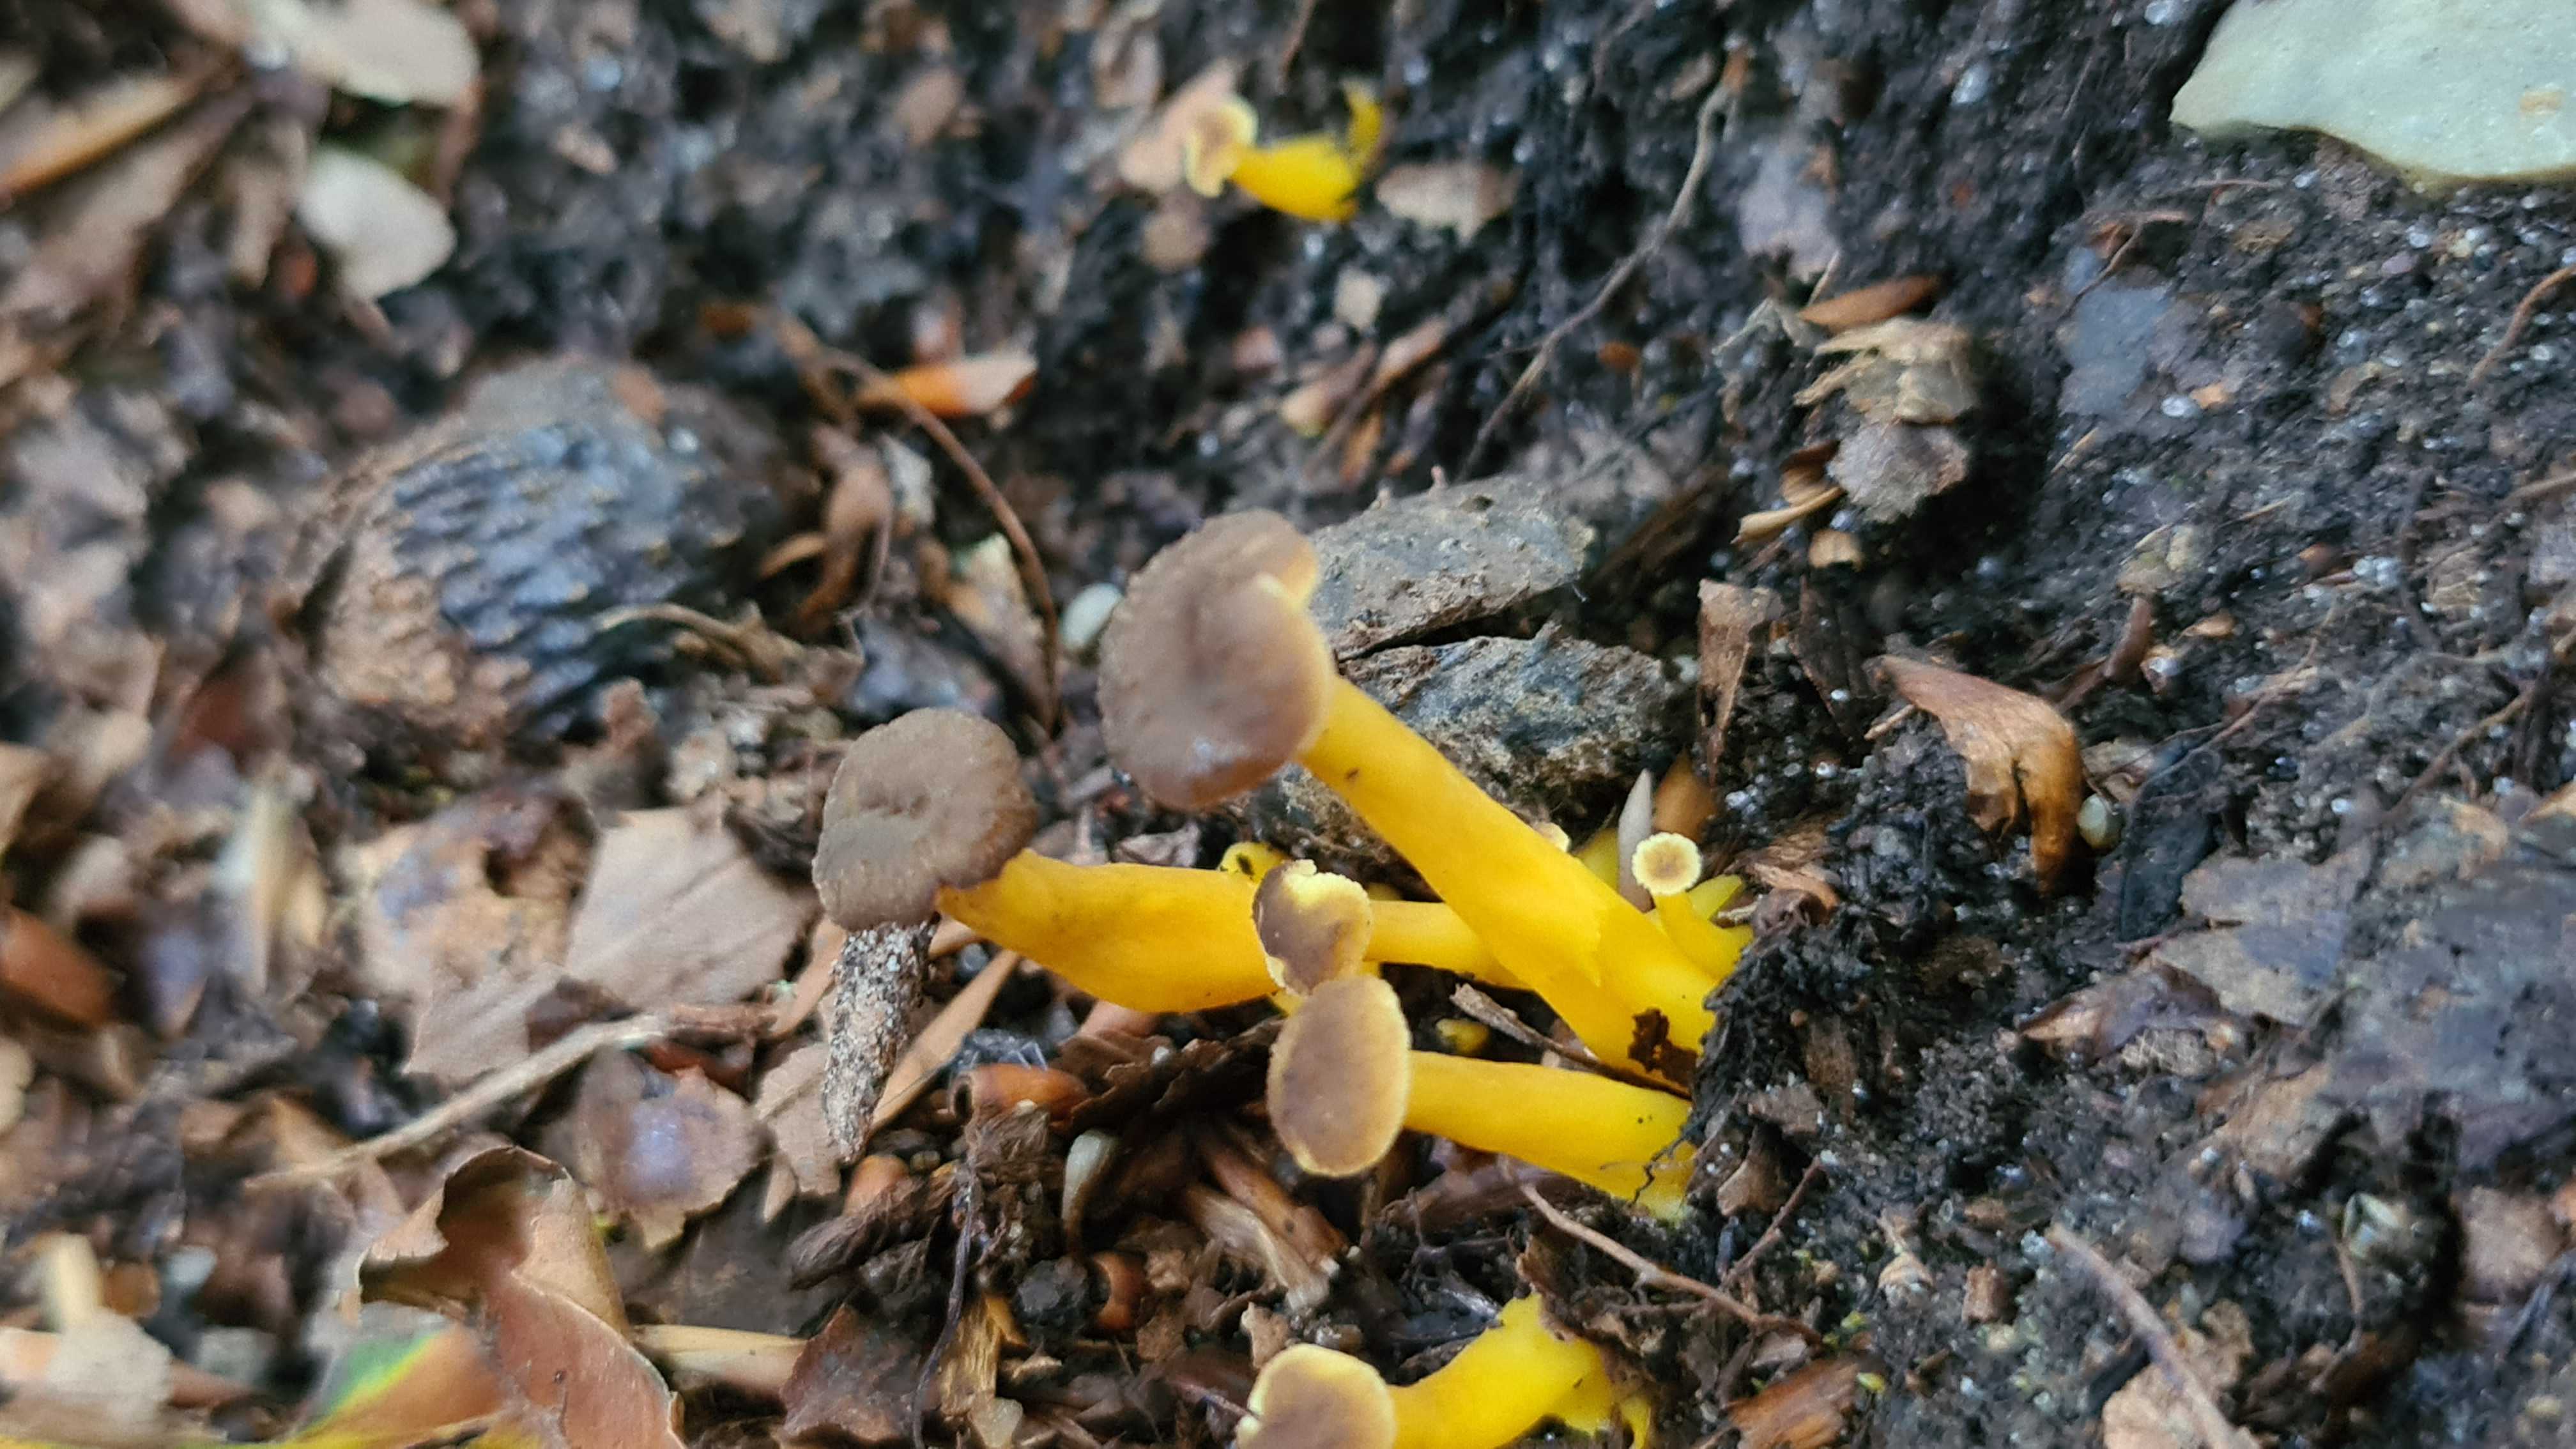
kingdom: Fungi
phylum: Basidiomycota
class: Agaricomycetes
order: Cantharellales
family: Hydnaceae
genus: Craterellus
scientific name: Craterellus tubaeformis
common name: tragt-kantarel
